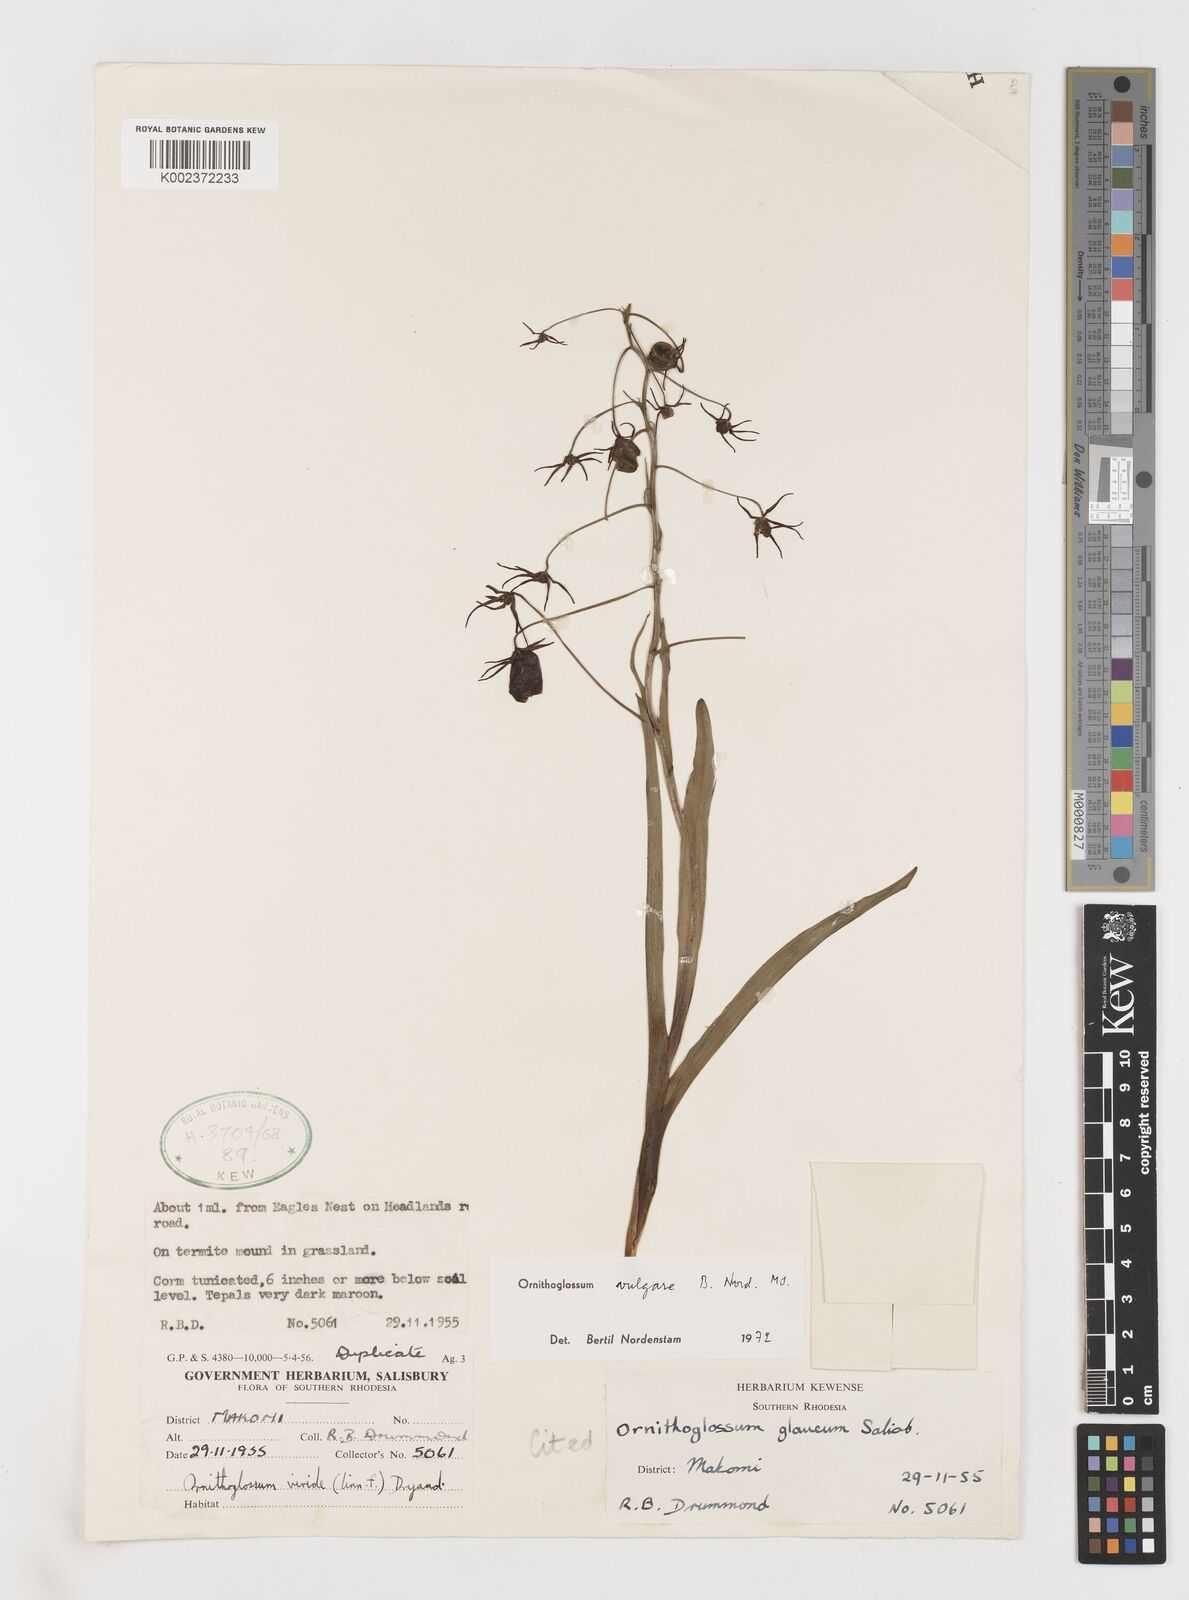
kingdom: Plantae
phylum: Tracheophyta
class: Liliopsida
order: Liliales
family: Colchicaceae
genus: Ornithoglossum
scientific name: Ornithoglossum vulgare
